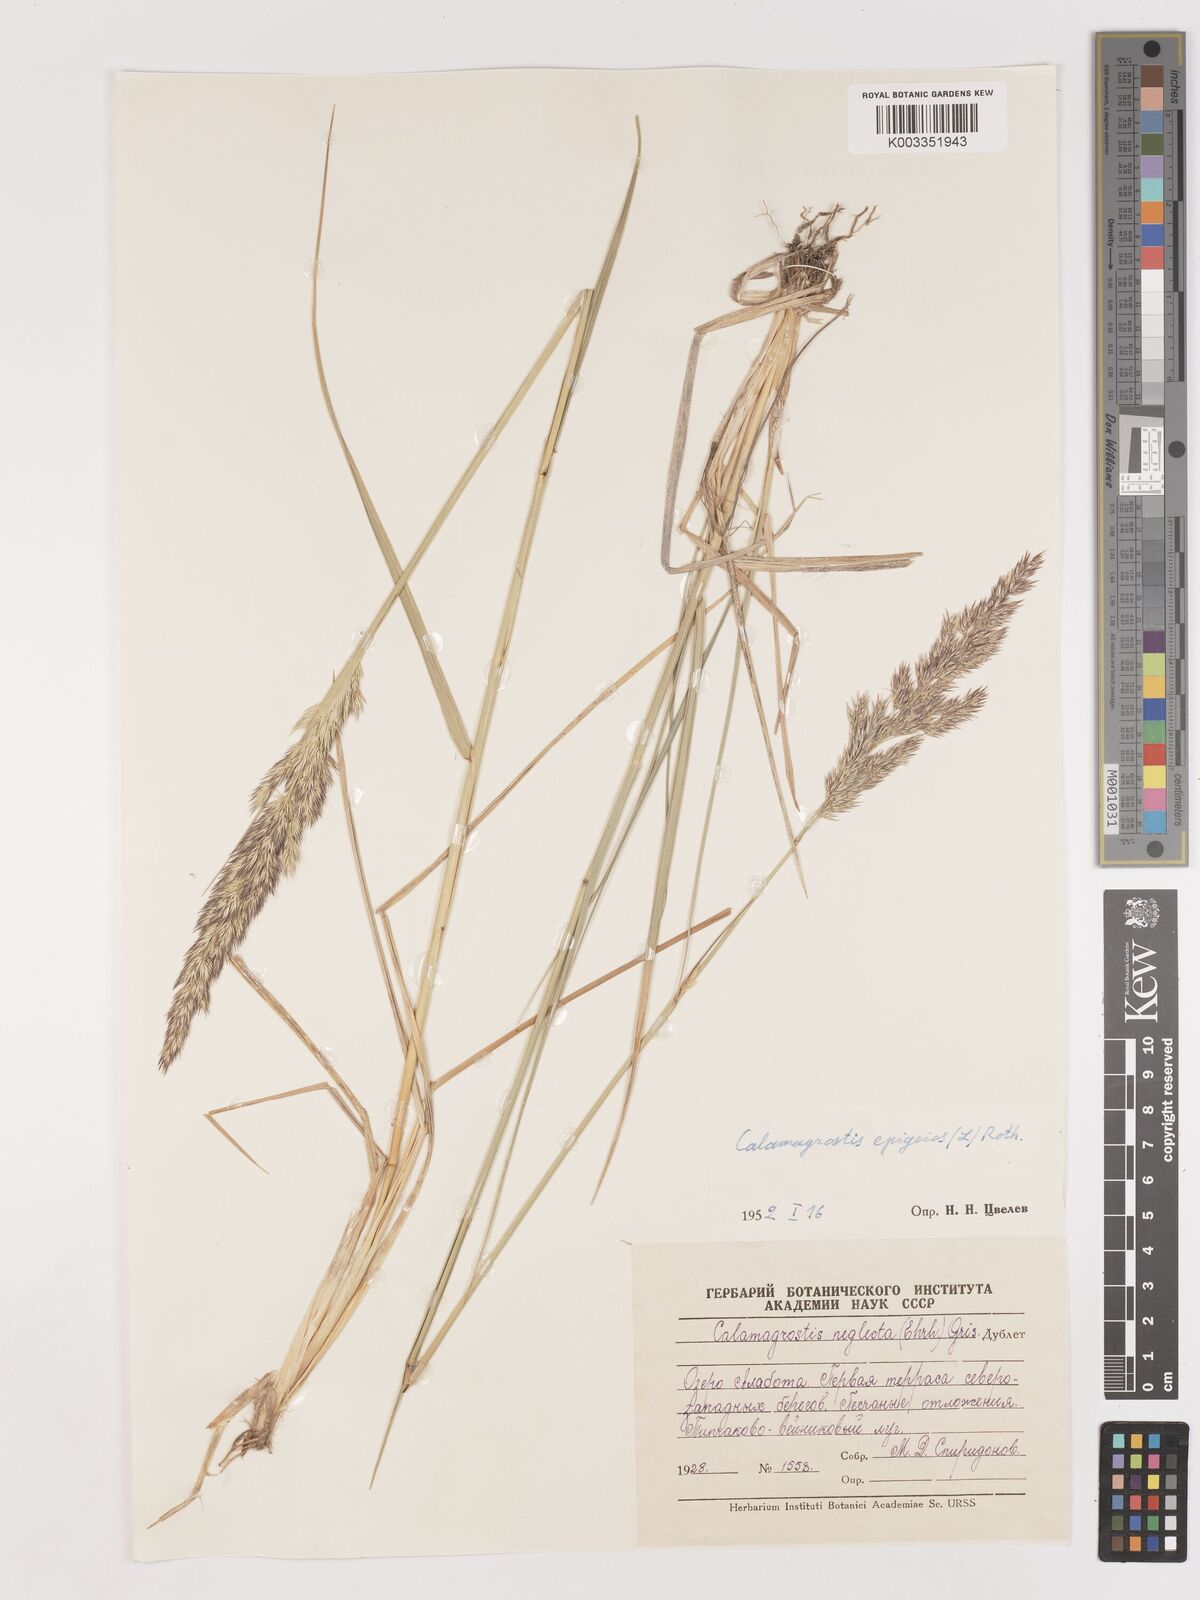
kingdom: Plantae
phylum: Tracheophyta
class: Liliopsida
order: Poales
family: Poaceae
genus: Calamagrostis
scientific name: Calamagrostis epigejos
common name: Wood small-reed
